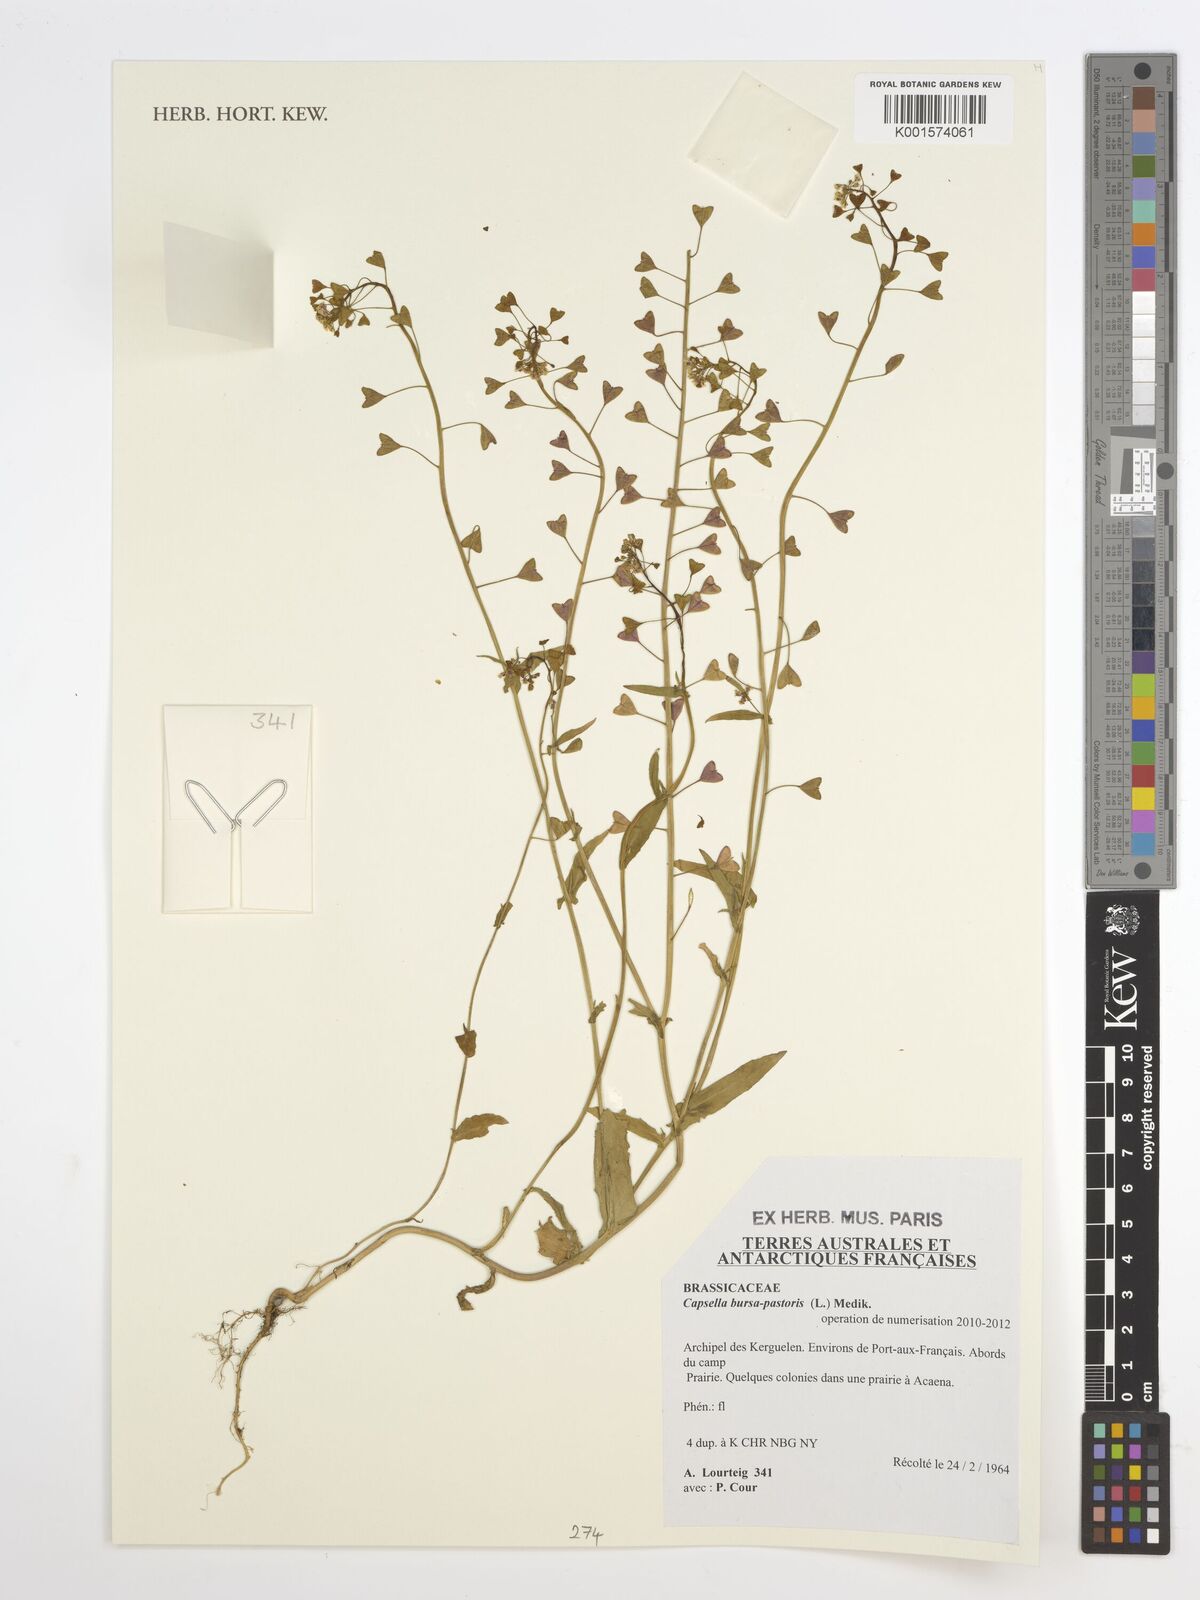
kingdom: Plantae
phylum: Tracheophyta
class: Magnoliopsida
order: Brassicales
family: Brassicaceae
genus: Capsella
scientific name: Capsella bursa-pastoris
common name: Shepherd's purse
